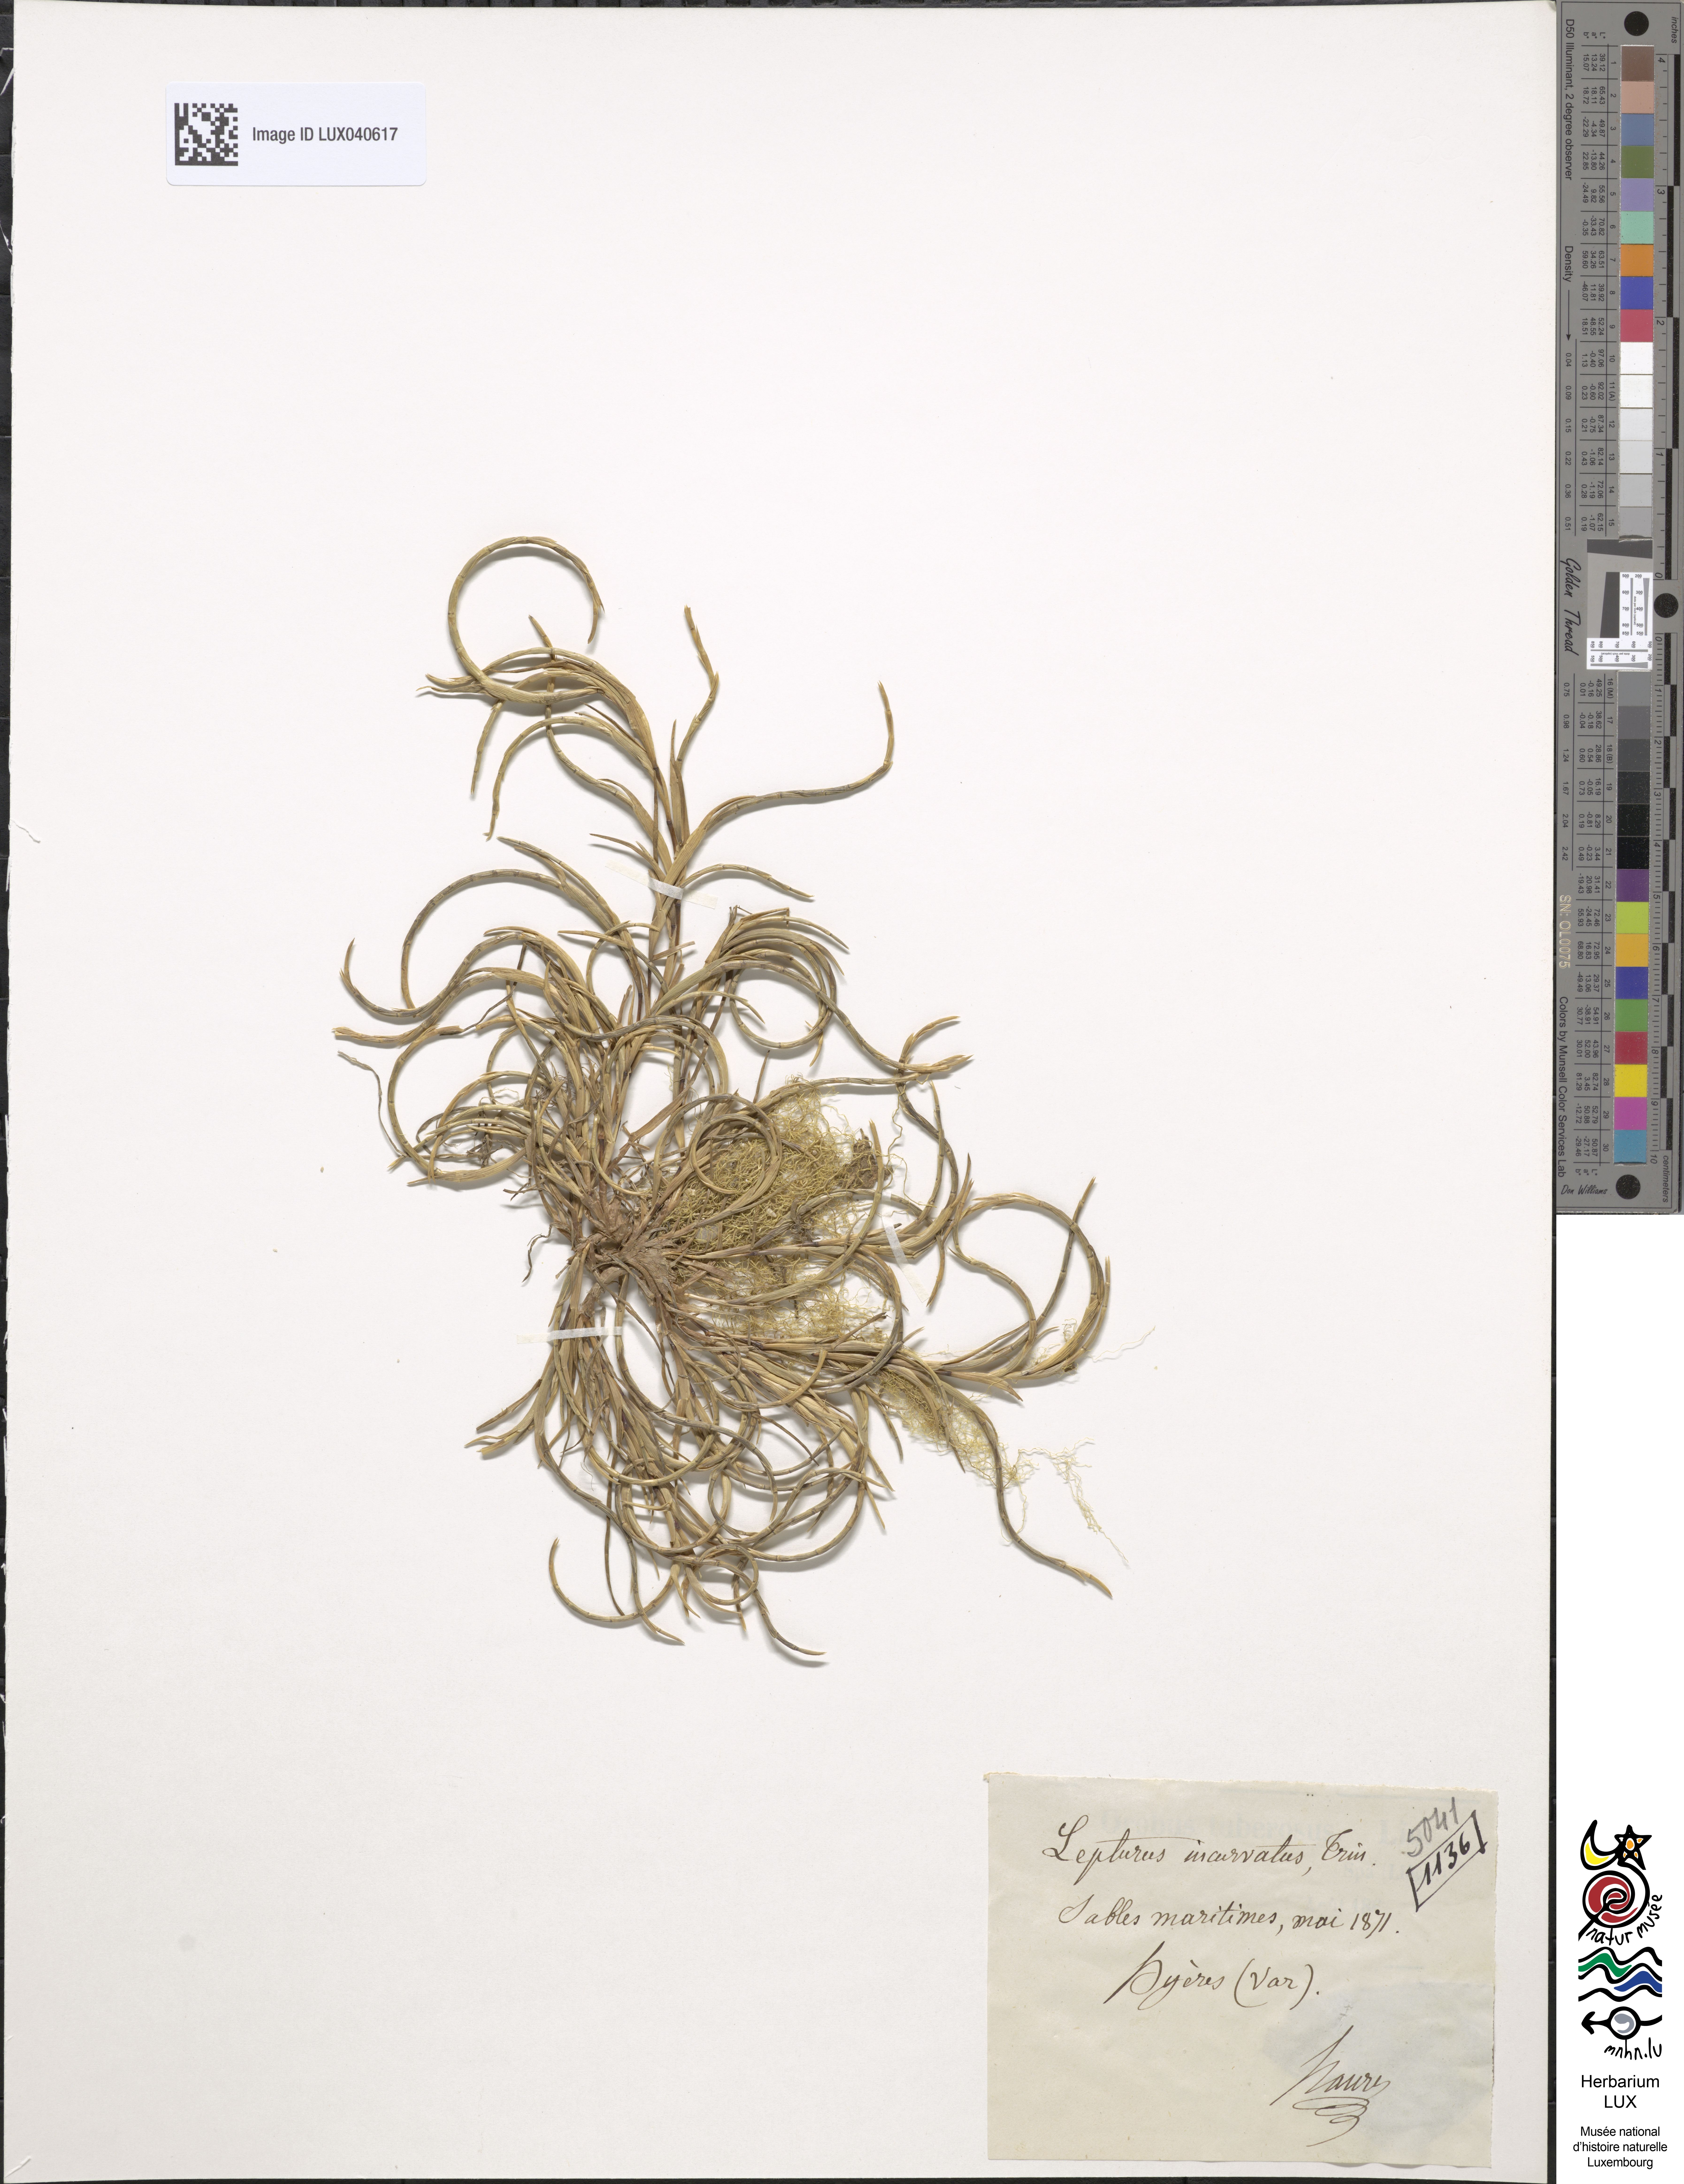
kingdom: Plantae
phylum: Tracheophyta
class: Liliopsida
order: Poales
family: Poaceae
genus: Parapholis
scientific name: Parapholis incurva
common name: Curved sicklegrass
